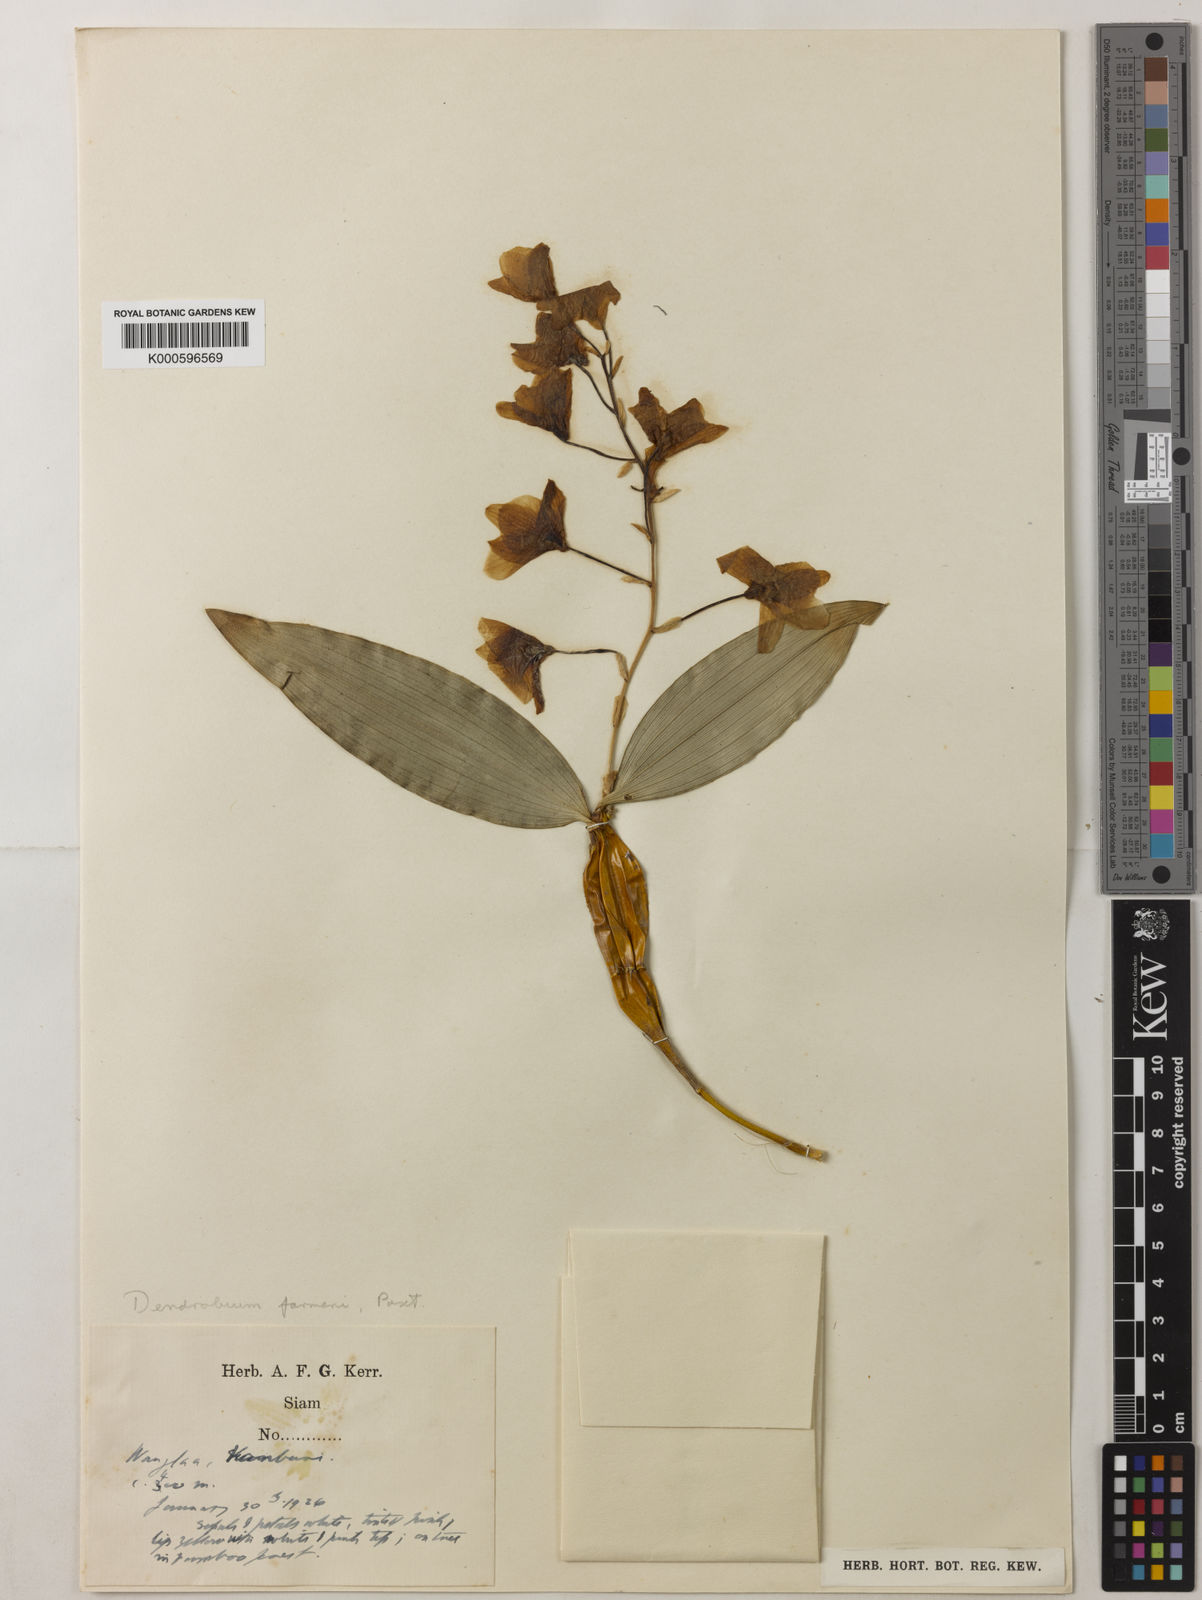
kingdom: Plantae
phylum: Tracheophyta
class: Liliopsida
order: Asparagales
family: Orchidaceae
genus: Dendrobium
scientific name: Dendrobium farmeri
